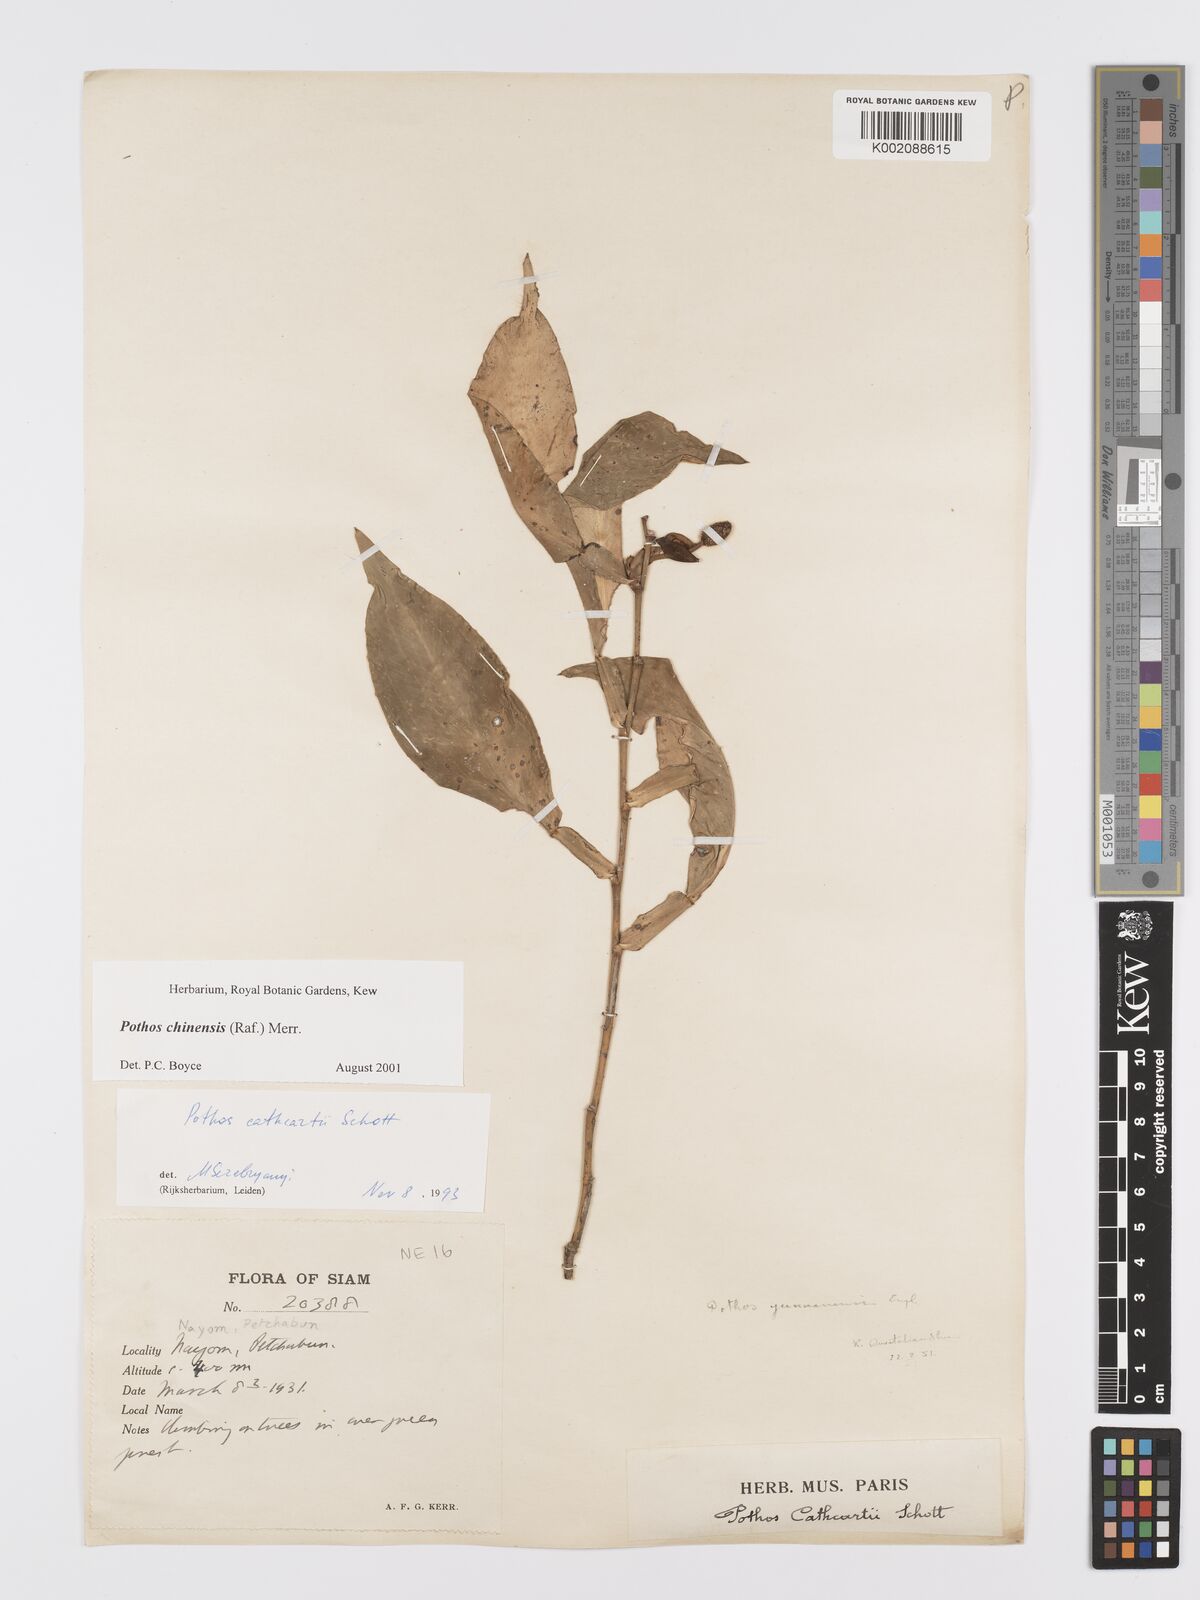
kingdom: Plantae
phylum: Tracheophyta
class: Liliopsida
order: Alismatales
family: Araceae
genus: Pothos
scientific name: Pothos chinensis
